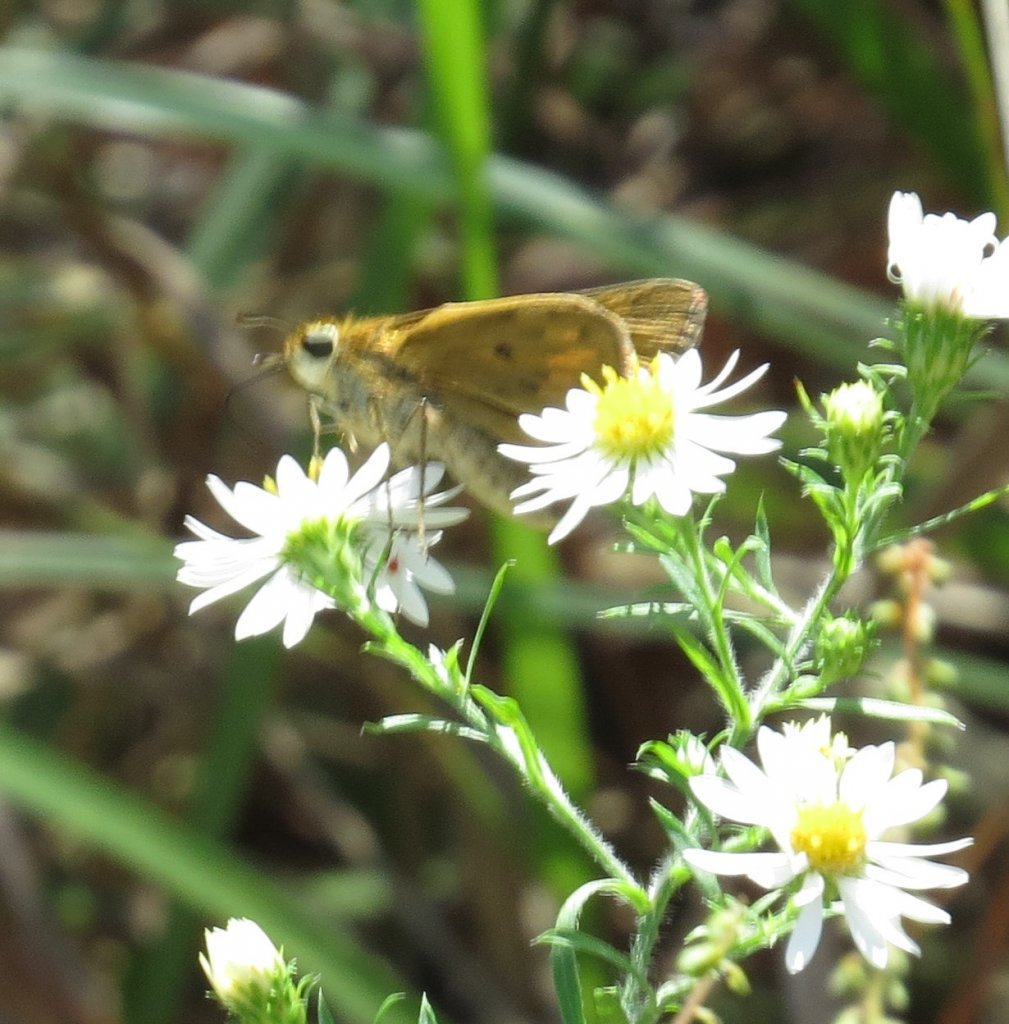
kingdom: Animalia
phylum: Arthropoda
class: Insecta
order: Lepidoptera
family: Hesperiidae
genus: Hylephila
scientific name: Hylephila phyleus
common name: Fiery Skipper
